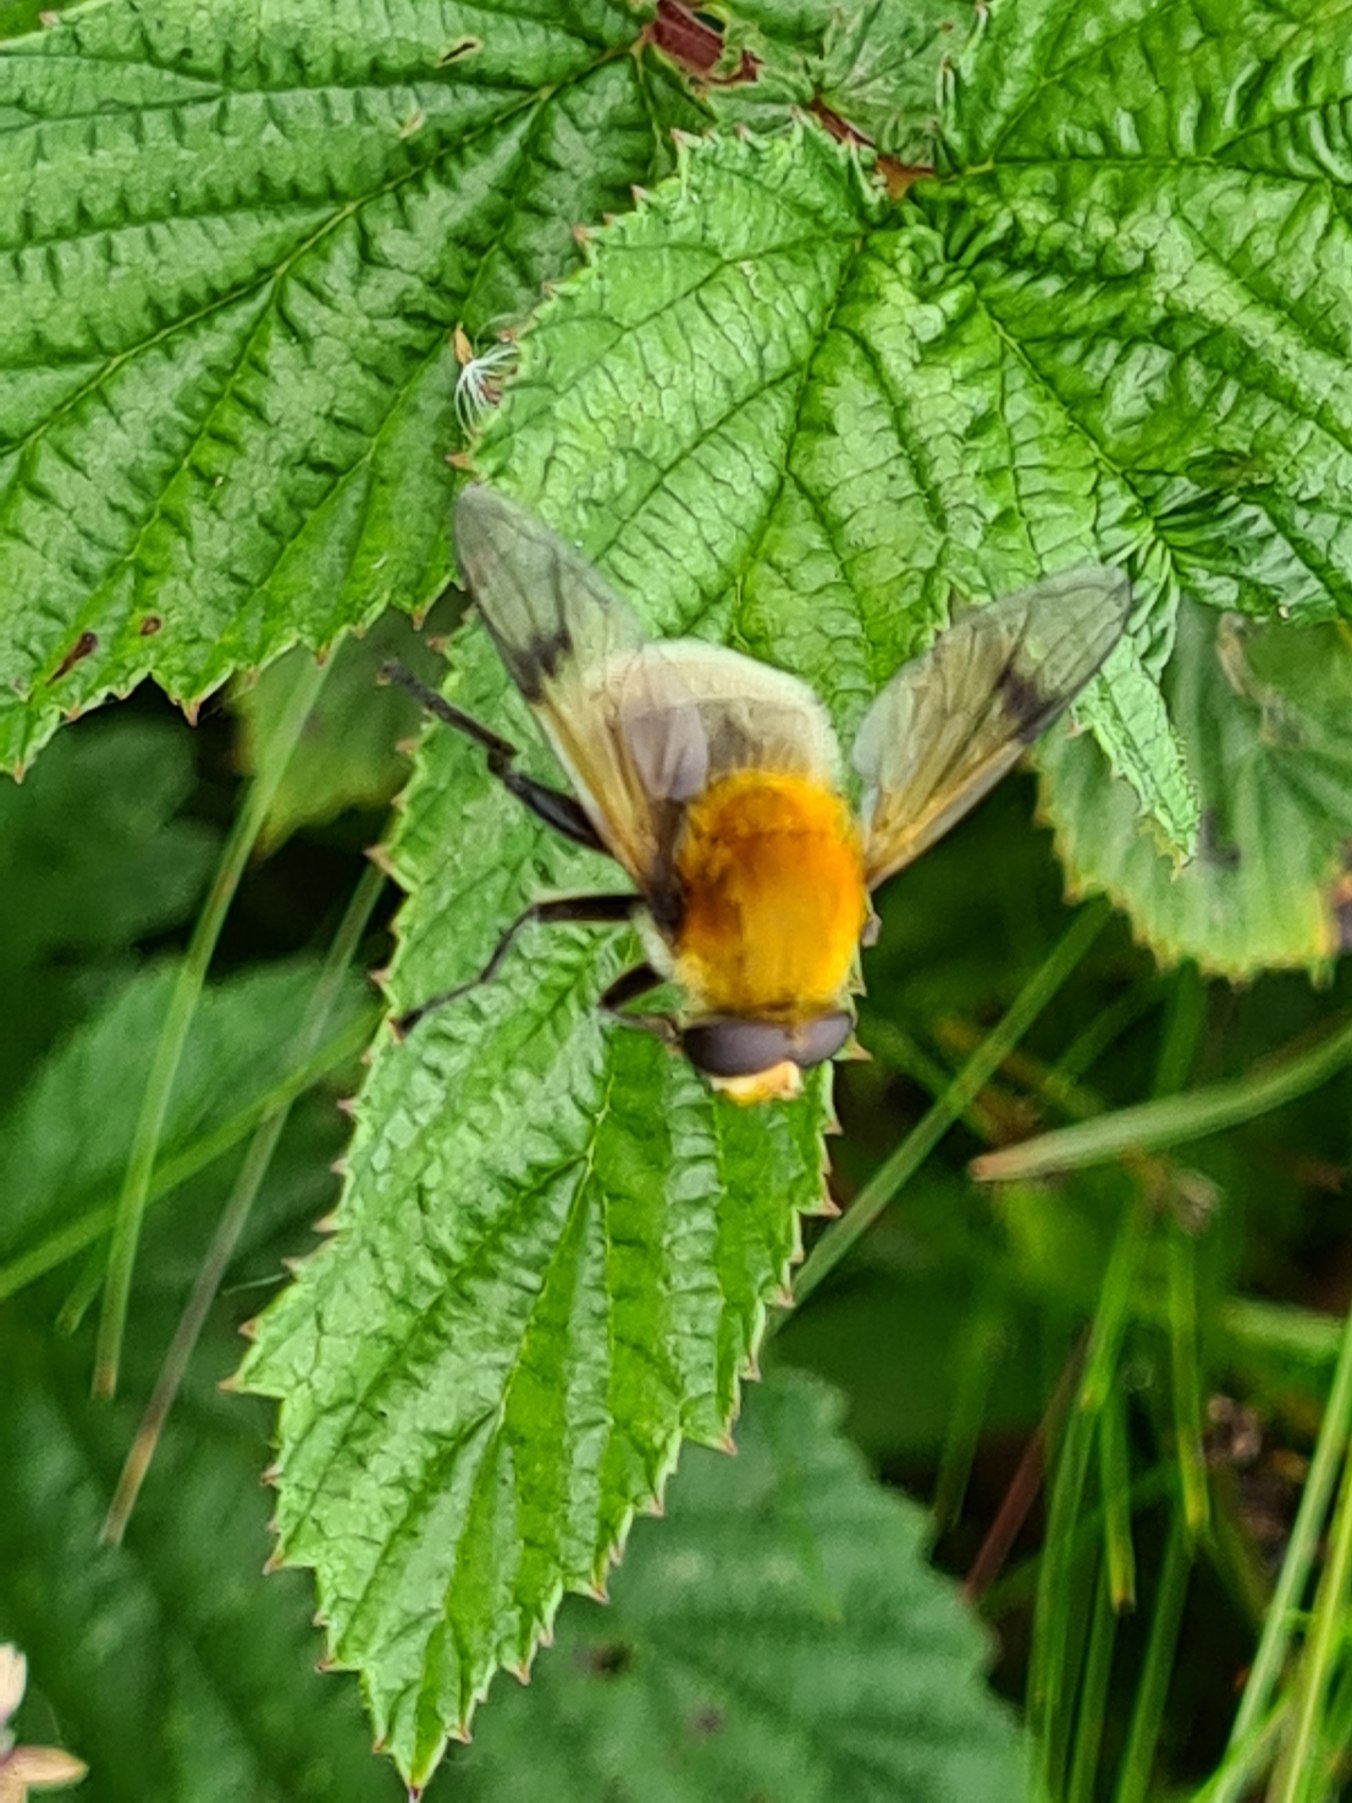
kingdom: Animalia
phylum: Arthropoda
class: Insecta
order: Diptera
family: Syrphidae
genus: Sericomyia
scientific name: Sericomyia superbiens
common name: Brun bjørnesvirreflue
